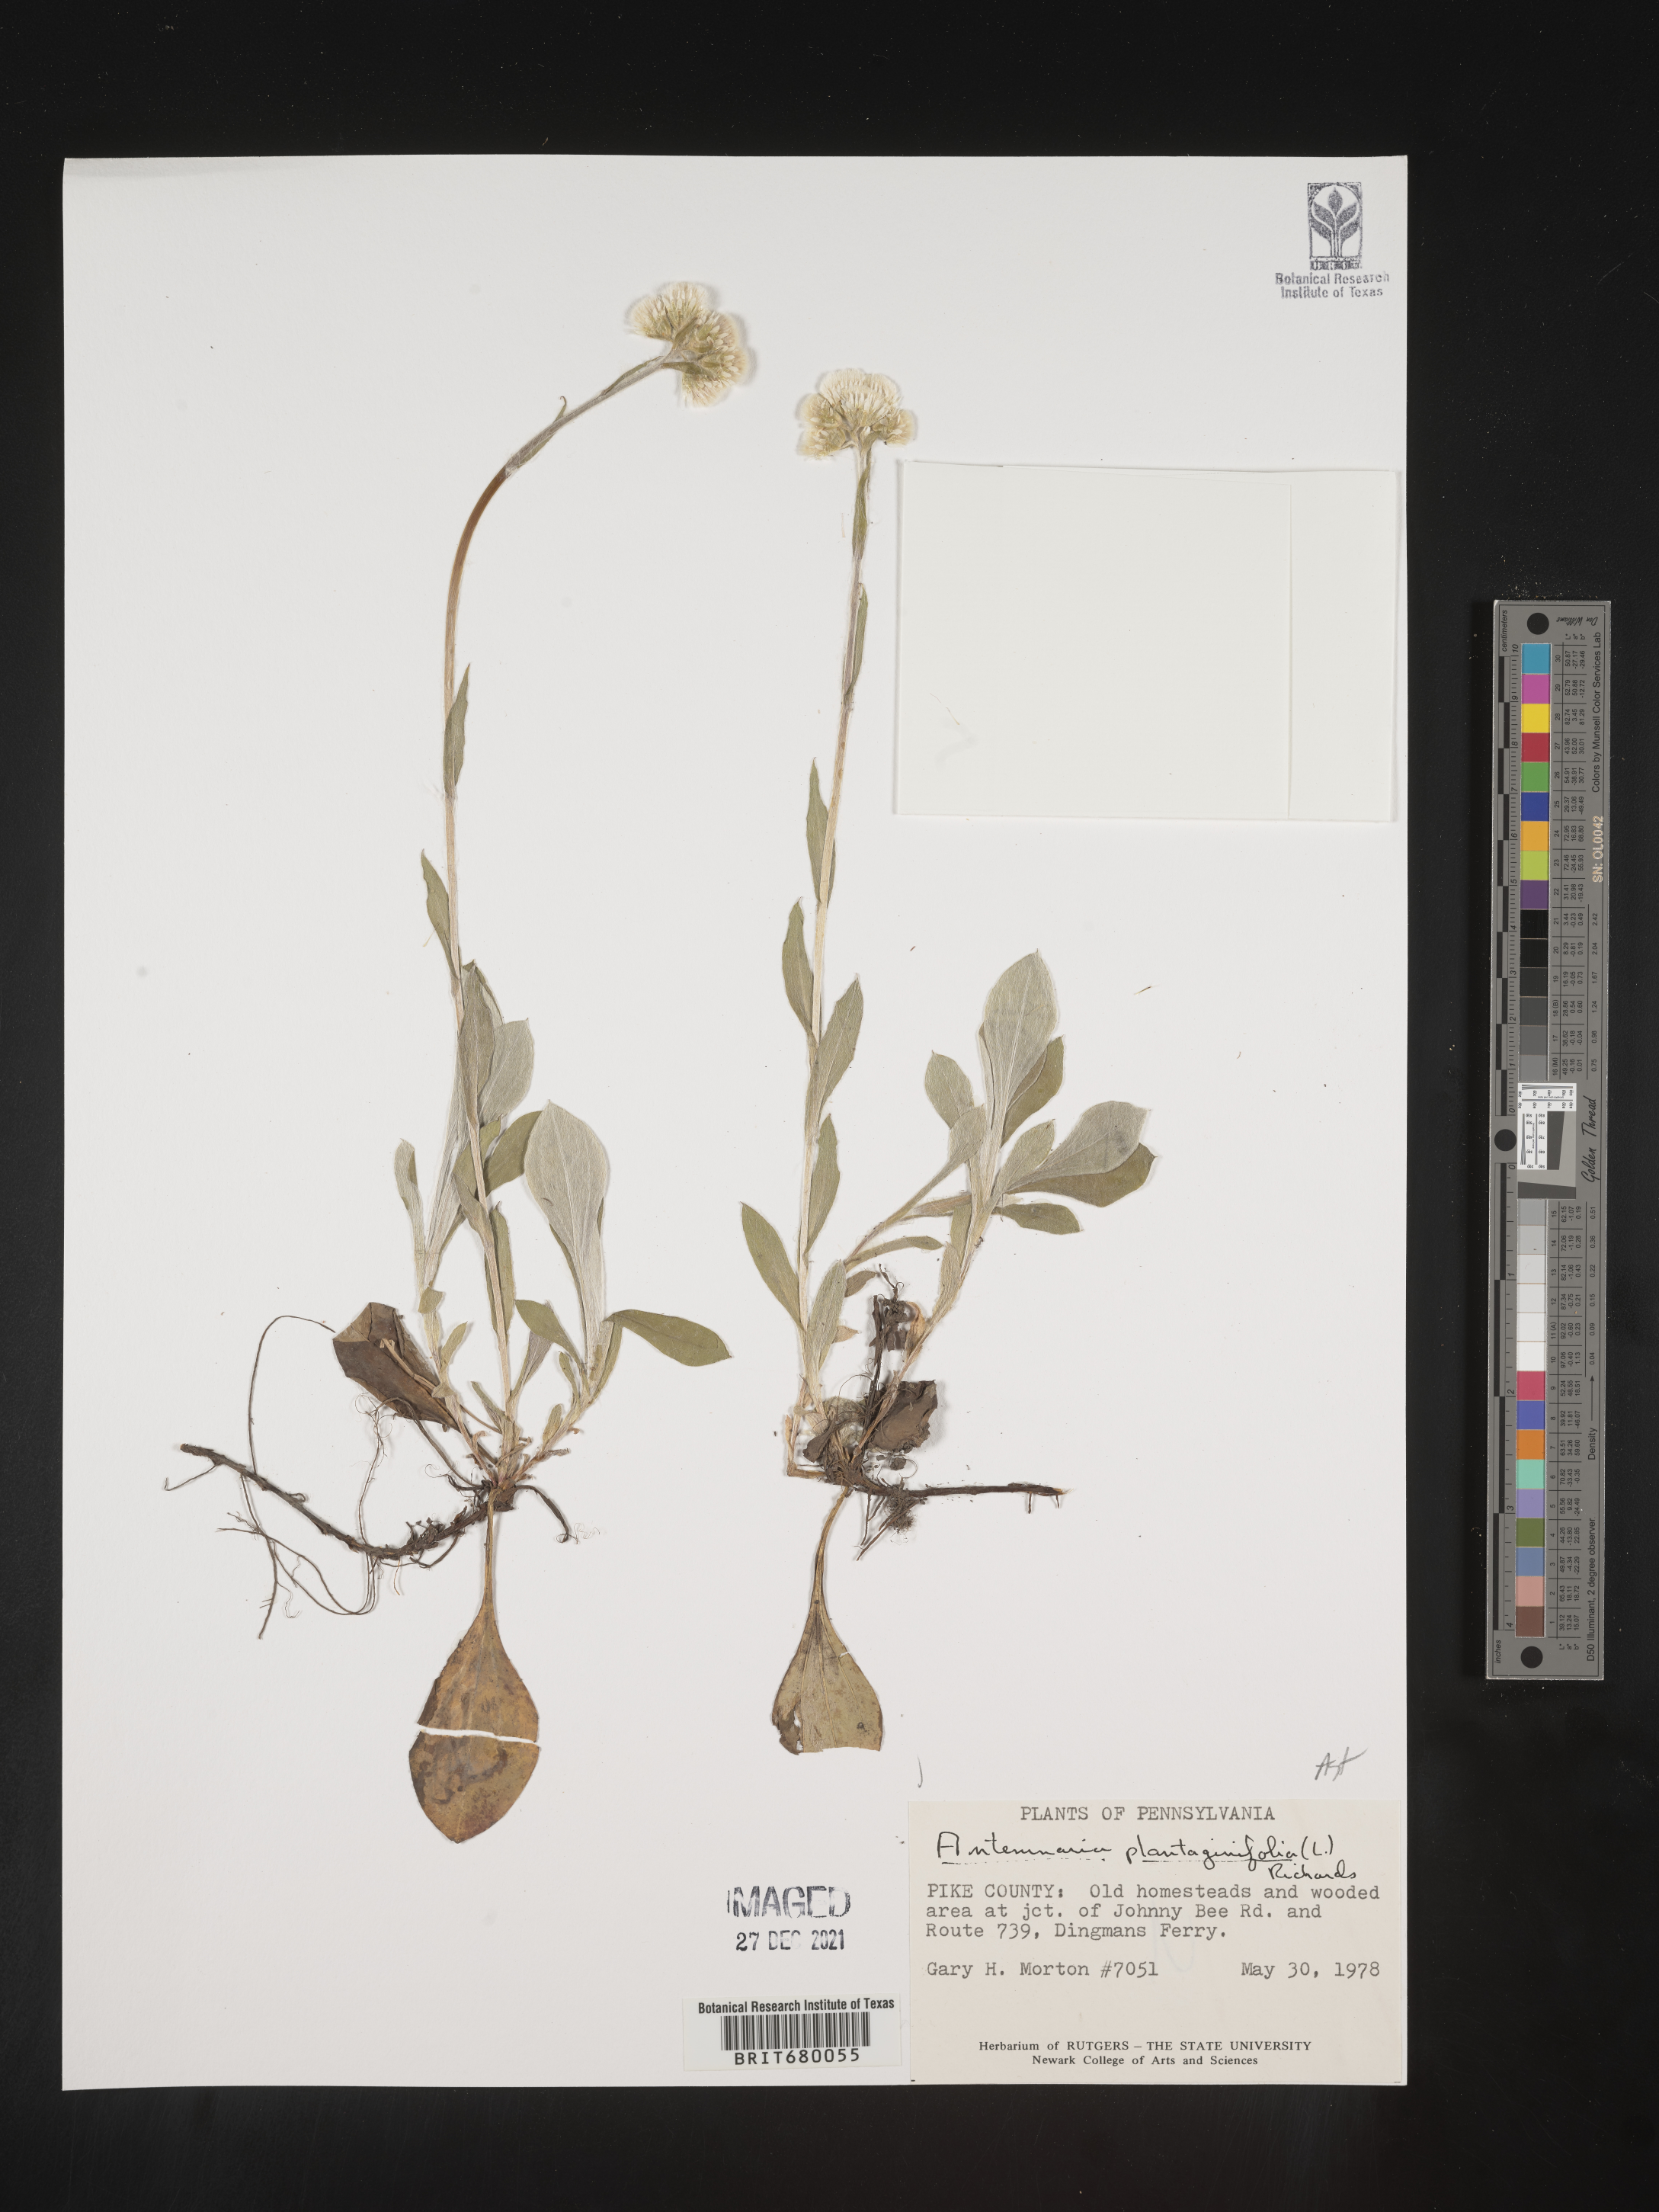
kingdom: Plantae
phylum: Tracheophyta
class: Magnoliopsida
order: Asterales
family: Asteraceae
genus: Antennaria
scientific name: Antennaria plantaginifolia
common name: Plantain-leaved pussytoes
